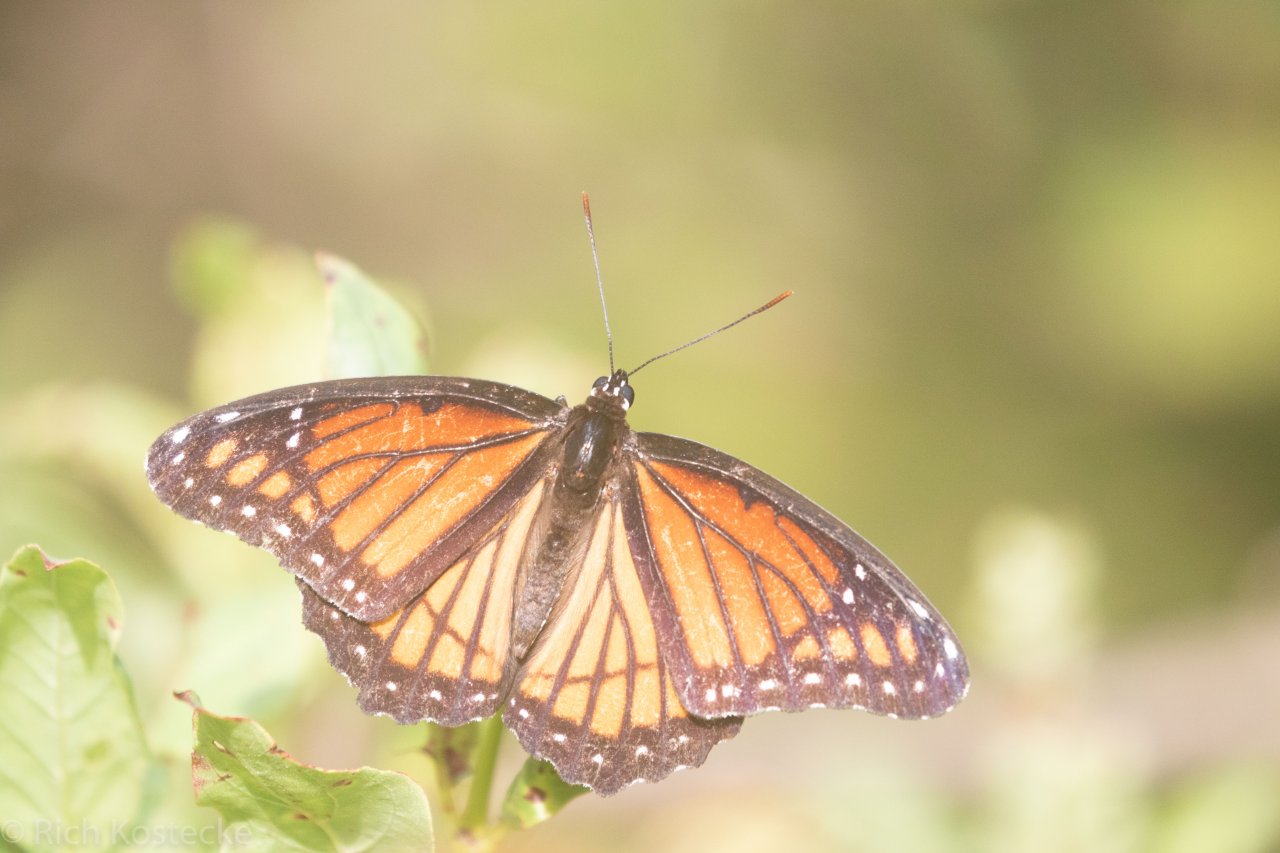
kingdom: Animalia
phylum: Arthropoda
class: Insecta
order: Lepidoptera
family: Nymphalidae
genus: Limenitis
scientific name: Limenitis archippus
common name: Viceroy
